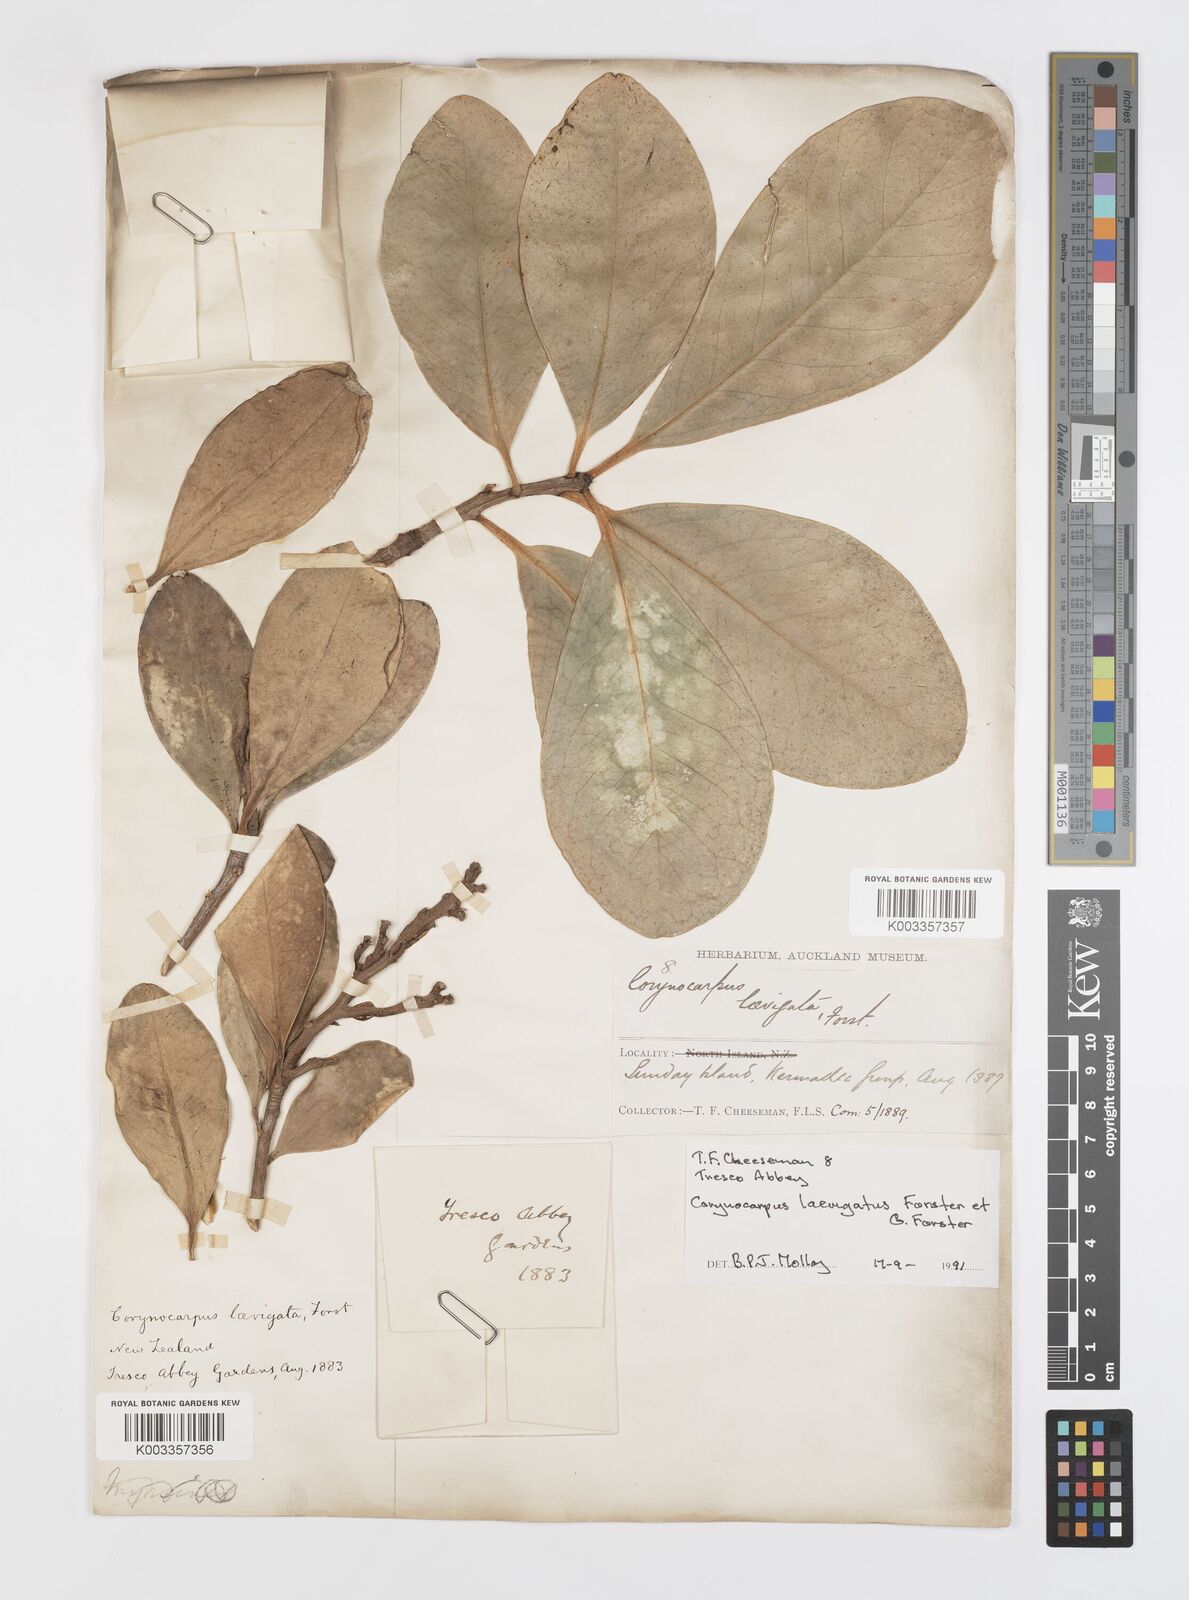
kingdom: Plantae
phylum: Tracheophyta
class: Magnoliopsida
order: Cucurbitales
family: Corynocarpaceae
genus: Corynocarpus
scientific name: Corynocarpus
